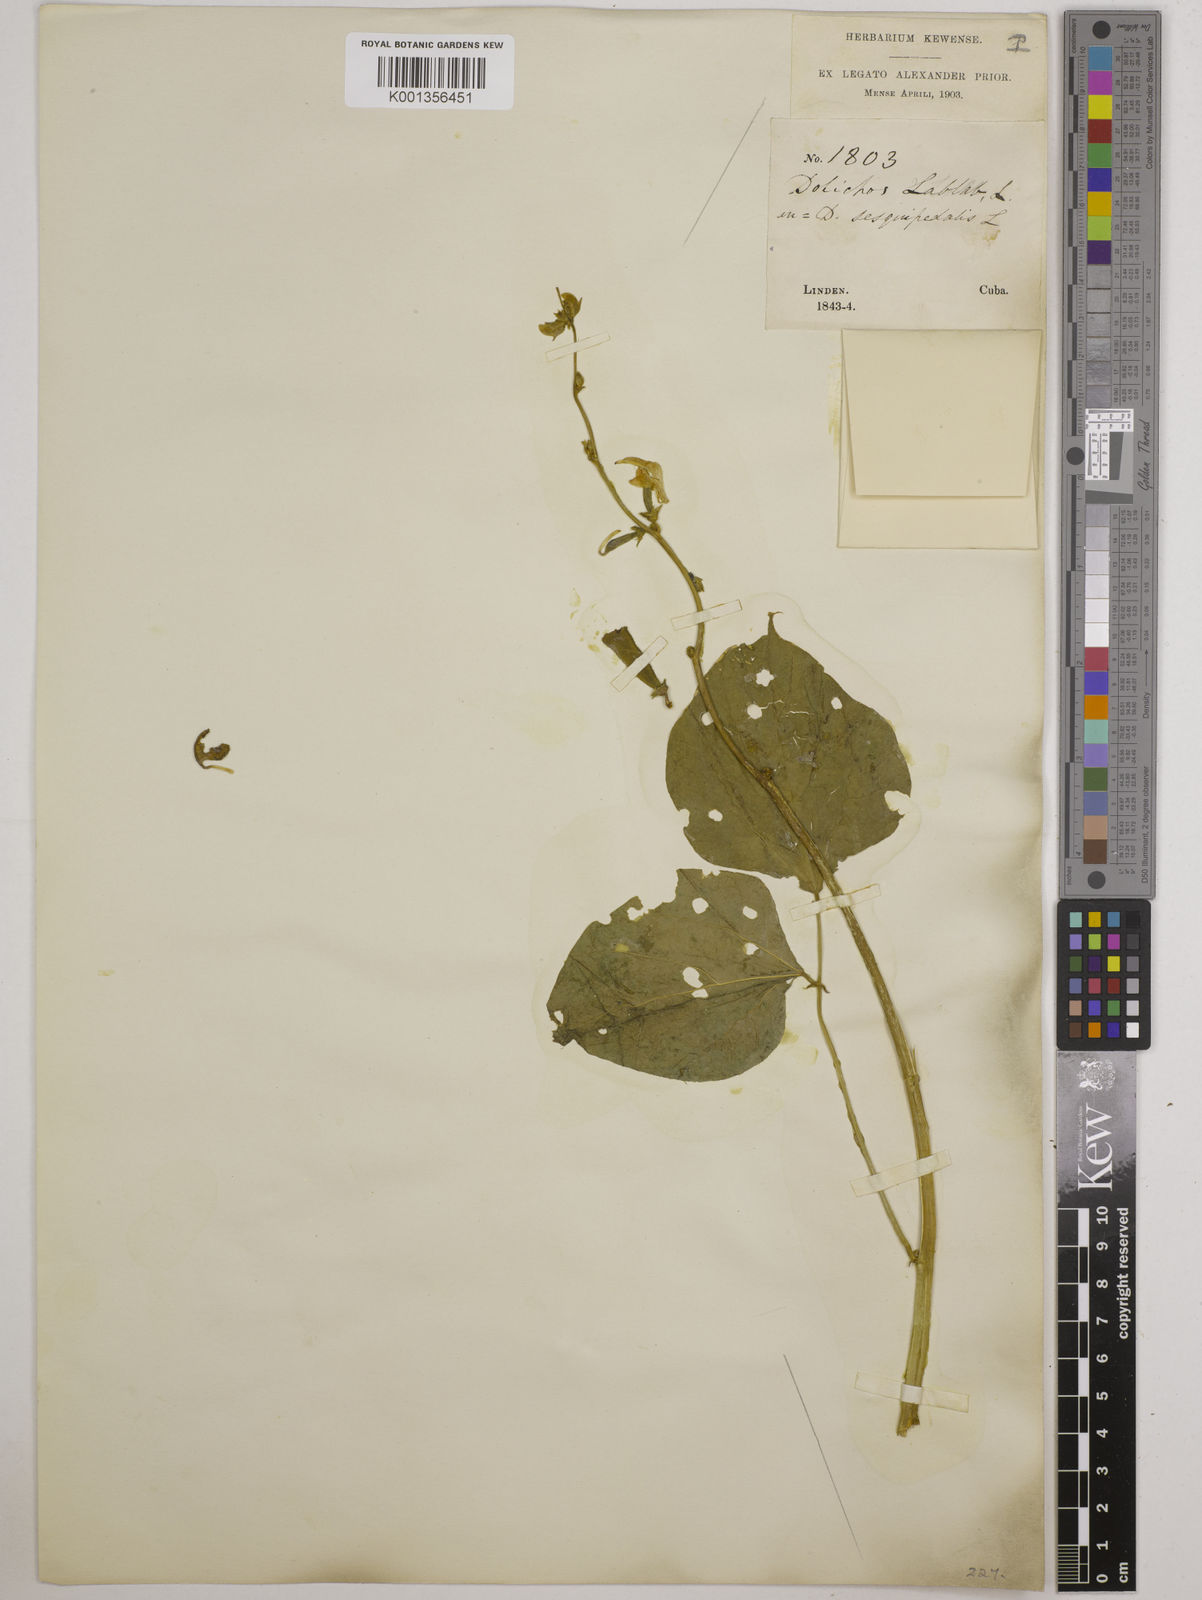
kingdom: Plantae
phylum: Tracheophyta
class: Magnoliopsida
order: Fabales
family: Fabaceae
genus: Lablab
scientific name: Lablab purpureus
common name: Lablab-bean
